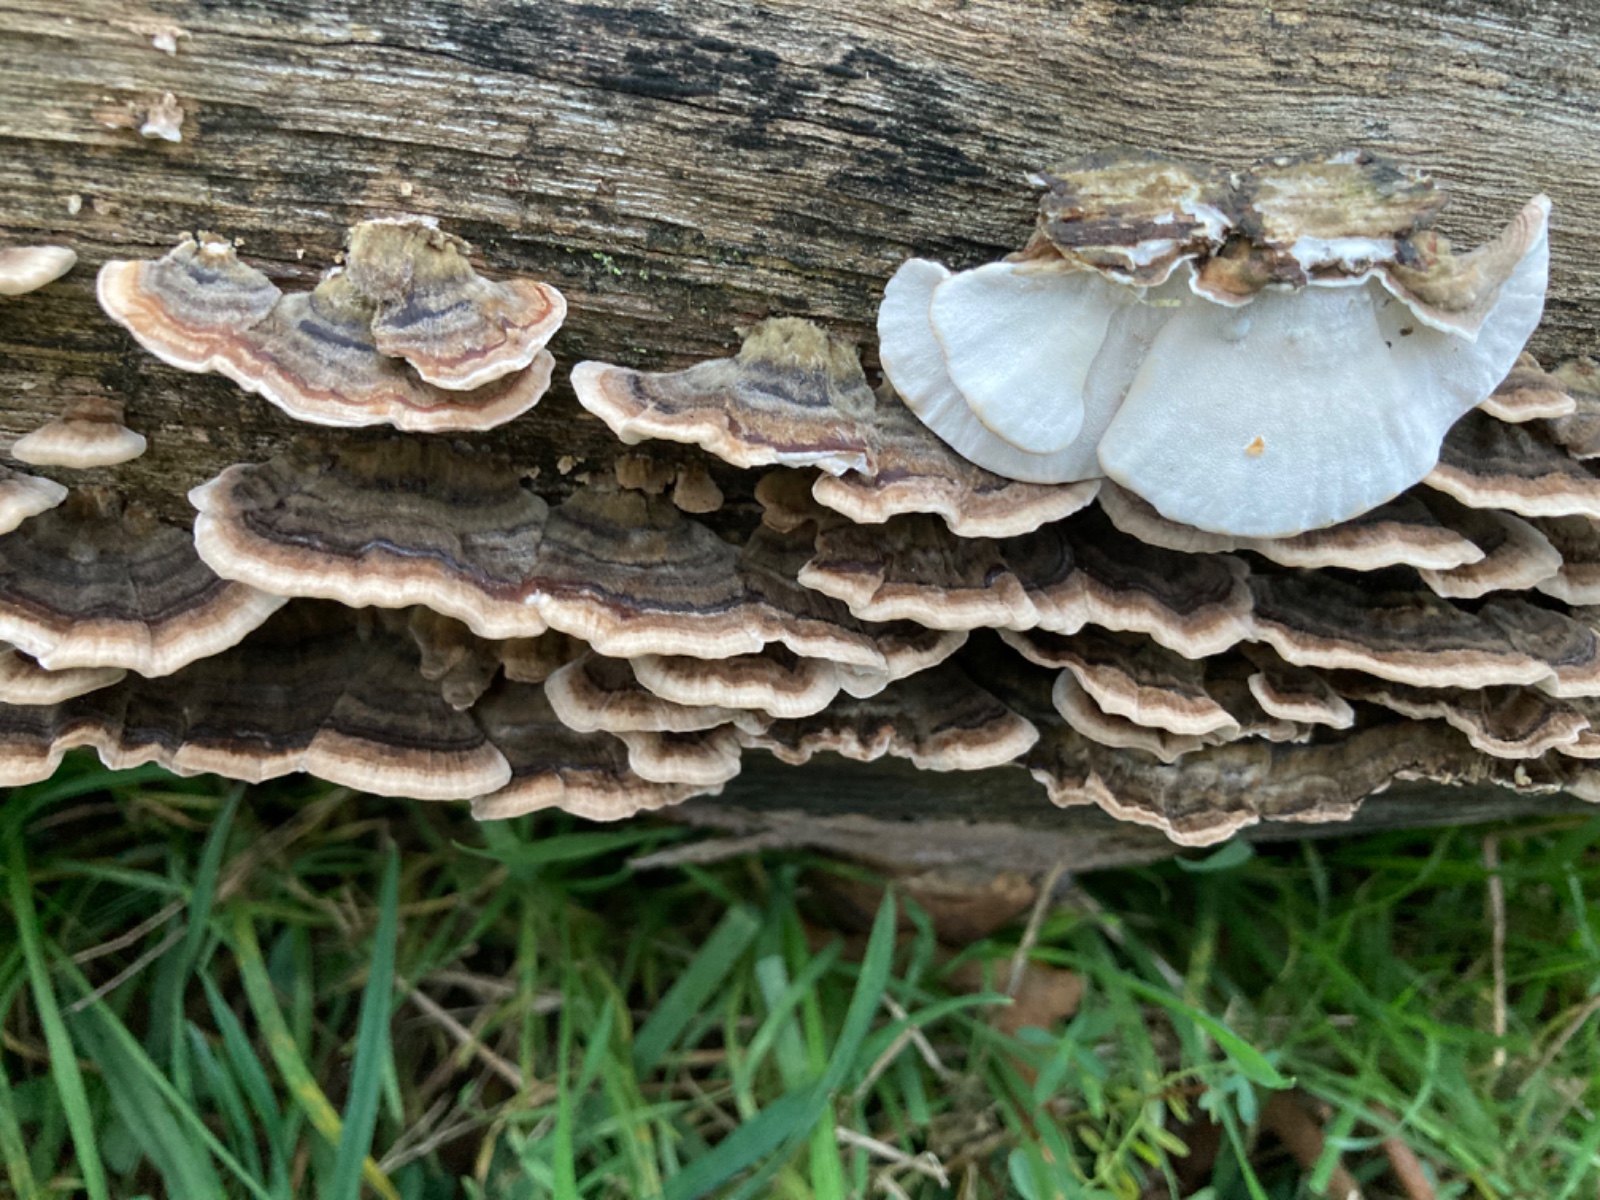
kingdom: Fungi
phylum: Basidiomycota
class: Agaricomycetes
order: Polyporales
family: Polyporaceae
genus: Trametes
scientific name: Trametes versicolor
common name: broget læderporesvamp
